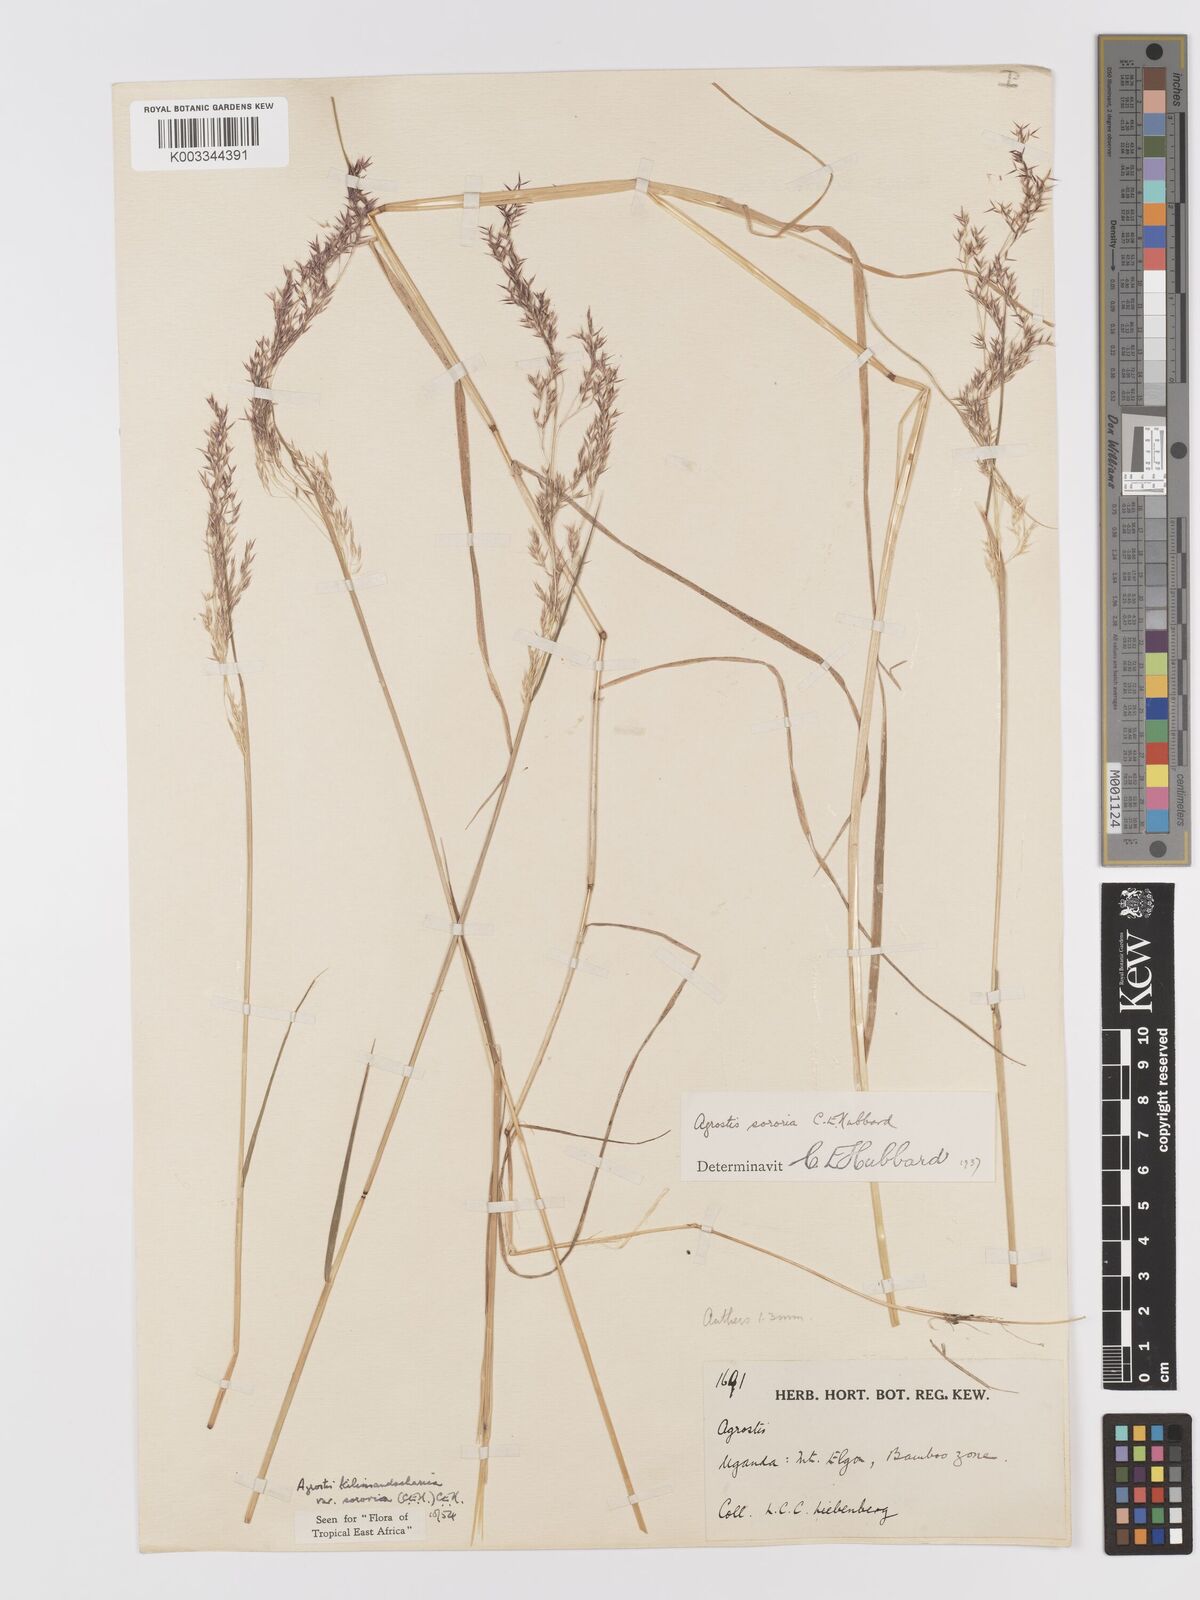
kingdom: Plantae
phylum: Tracheophyta
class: Liliopsida
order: Poales
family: Poaceae
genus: Agrostis
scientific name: Agrostis kilimandscharica
